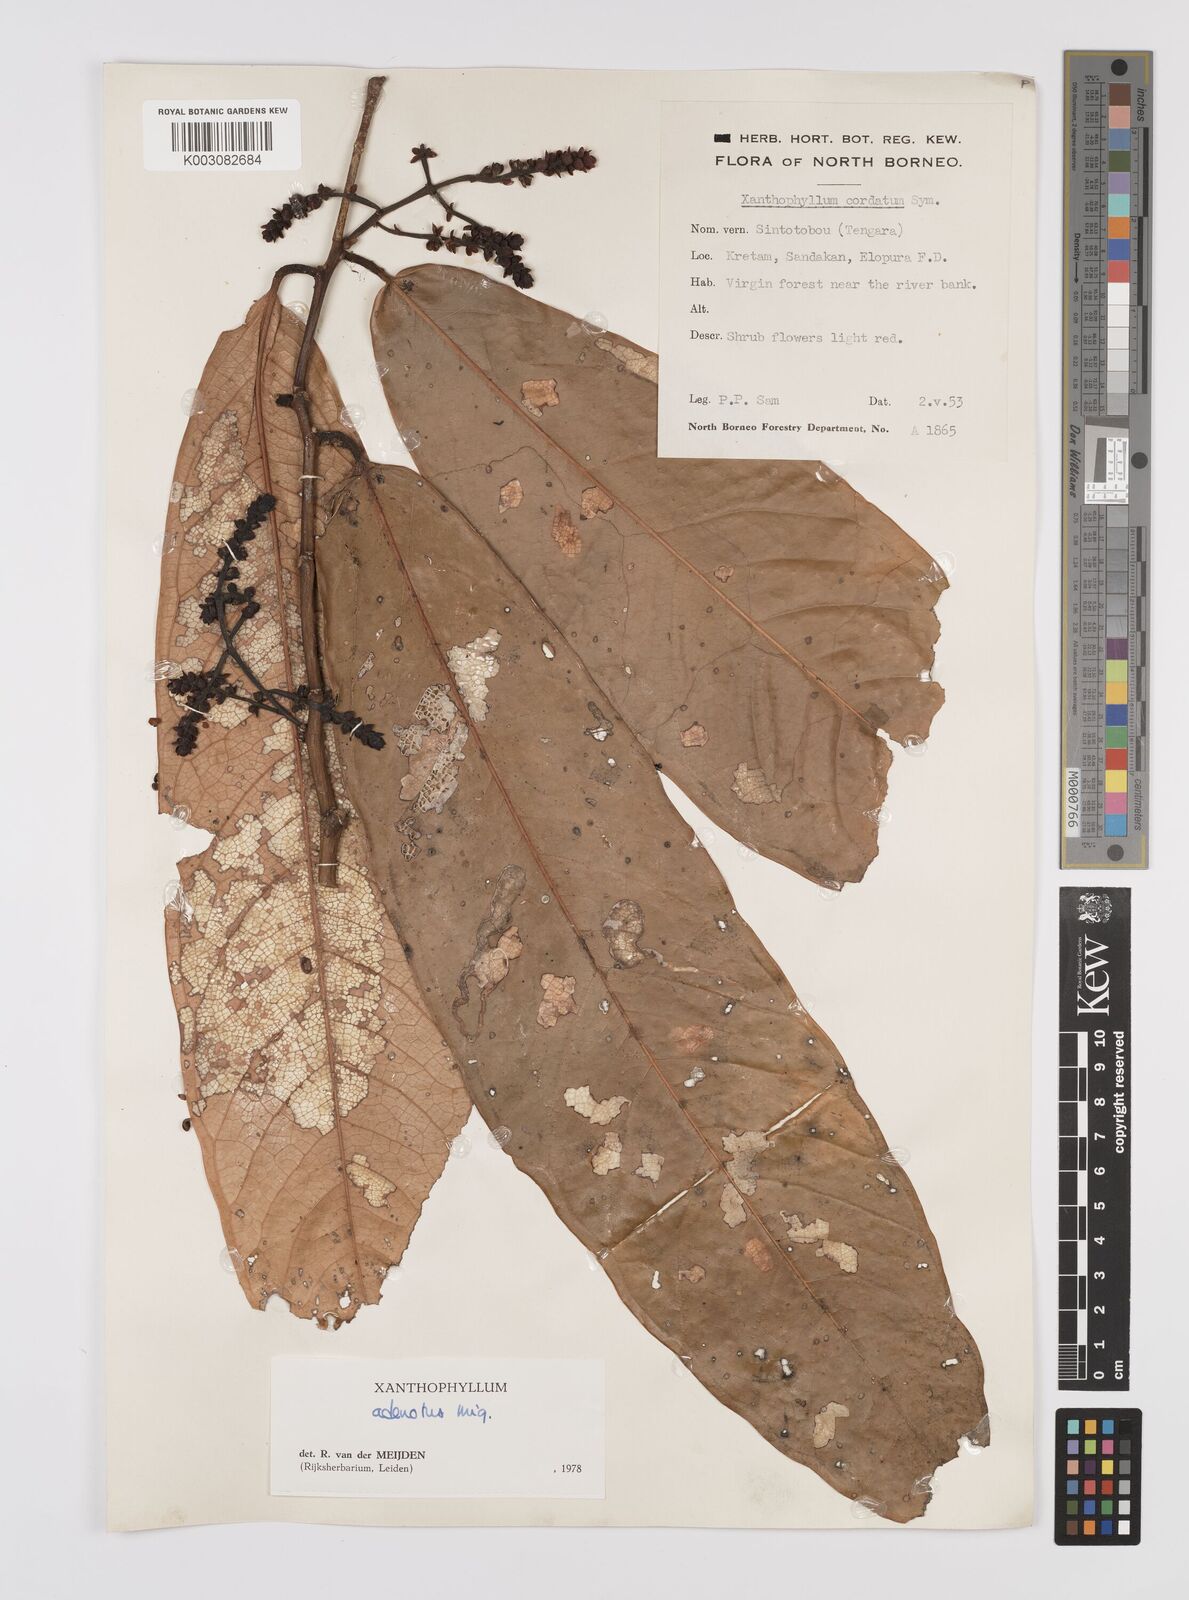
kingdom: Plantae
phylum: Tracheophyta
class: Magnoliopsida
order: Fabales
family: Polygalaceae
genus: Xanthophyllum
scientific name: Xanthophyllum adenotus
